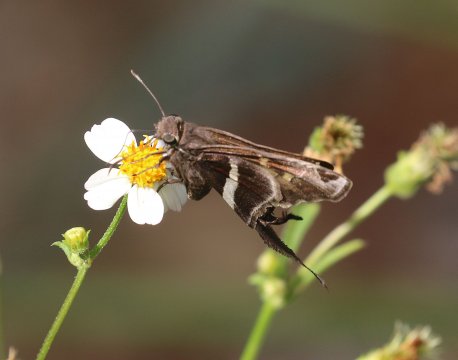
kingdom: Animalia
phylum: Arthropoda
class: Insecta
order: Lepidoptera
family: Hesperiidae
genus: Chioides
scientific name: Chioides catillus
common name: White-striped Longtail
